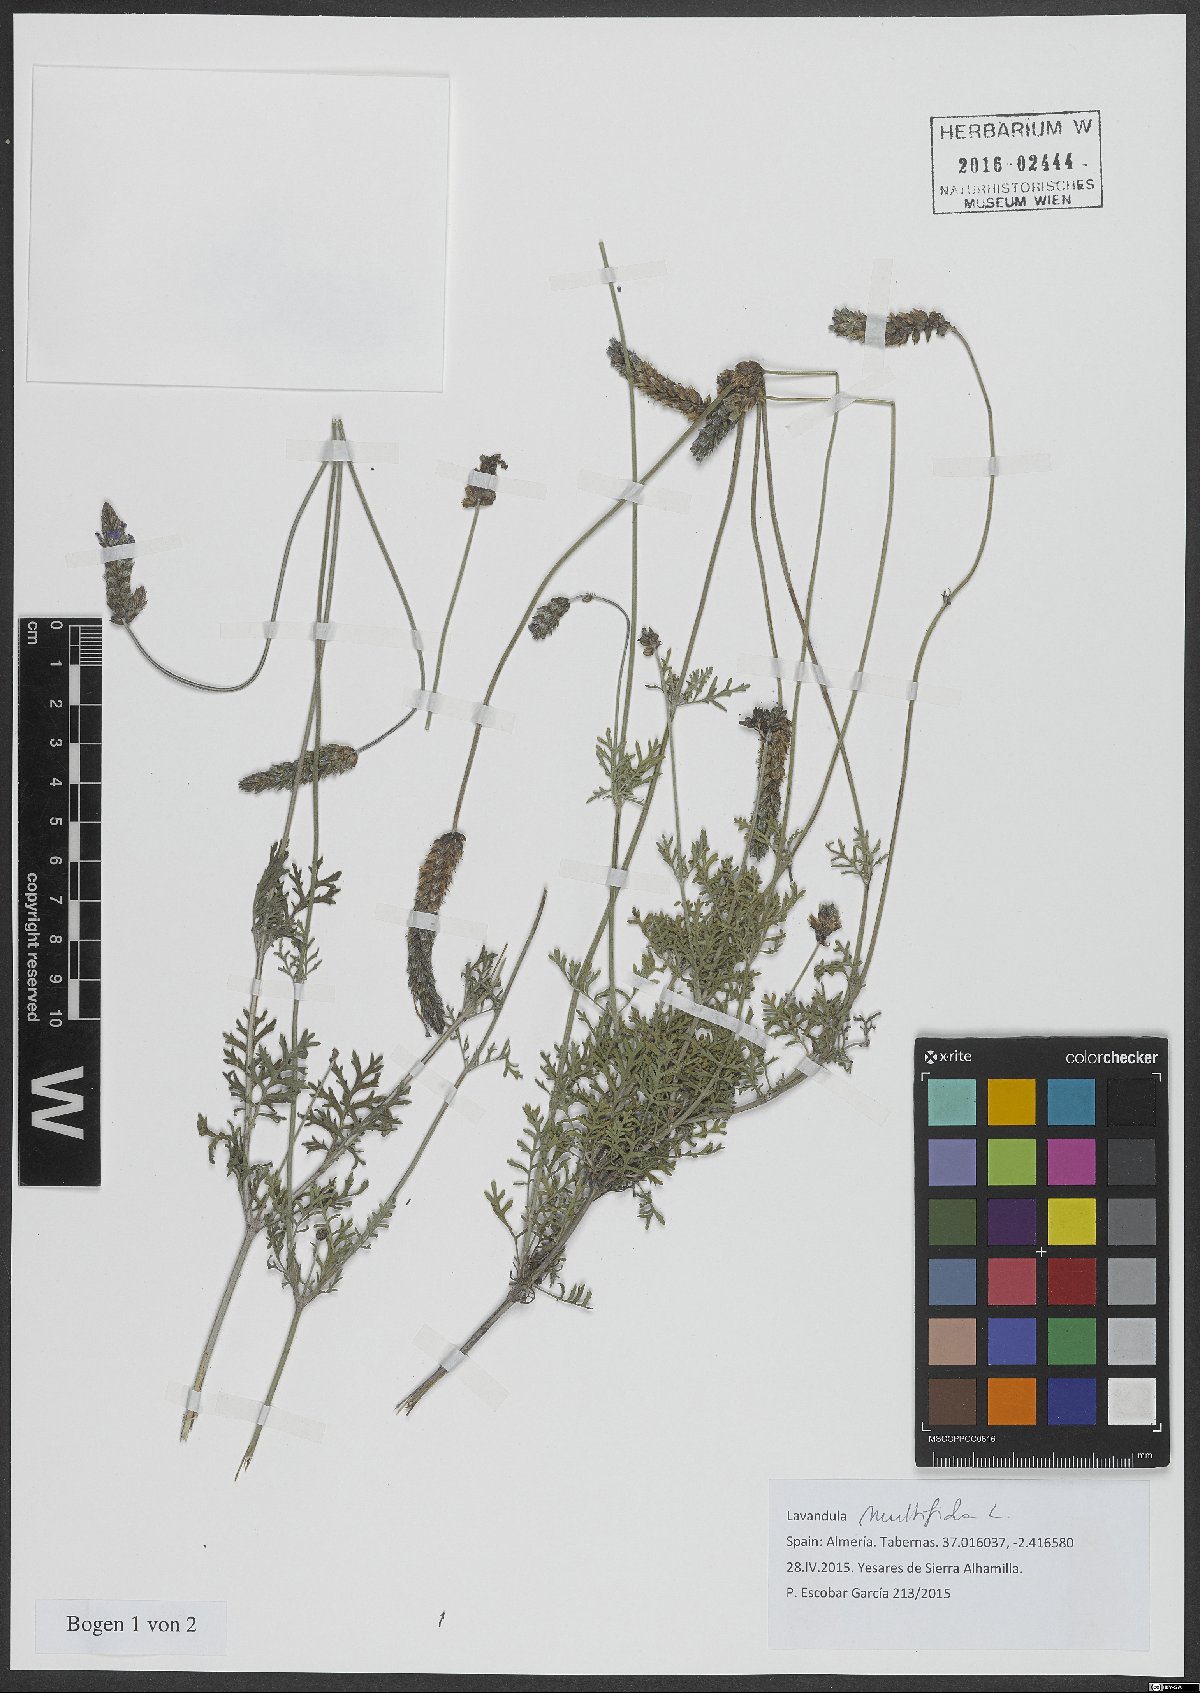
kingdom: Plantae
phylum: Tracheophyta
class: Magnoliopsida
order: Lamiales
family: Lamiaceae
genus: Lavandula
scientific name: Lavandula multifida
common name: Fern-leaf lavender
